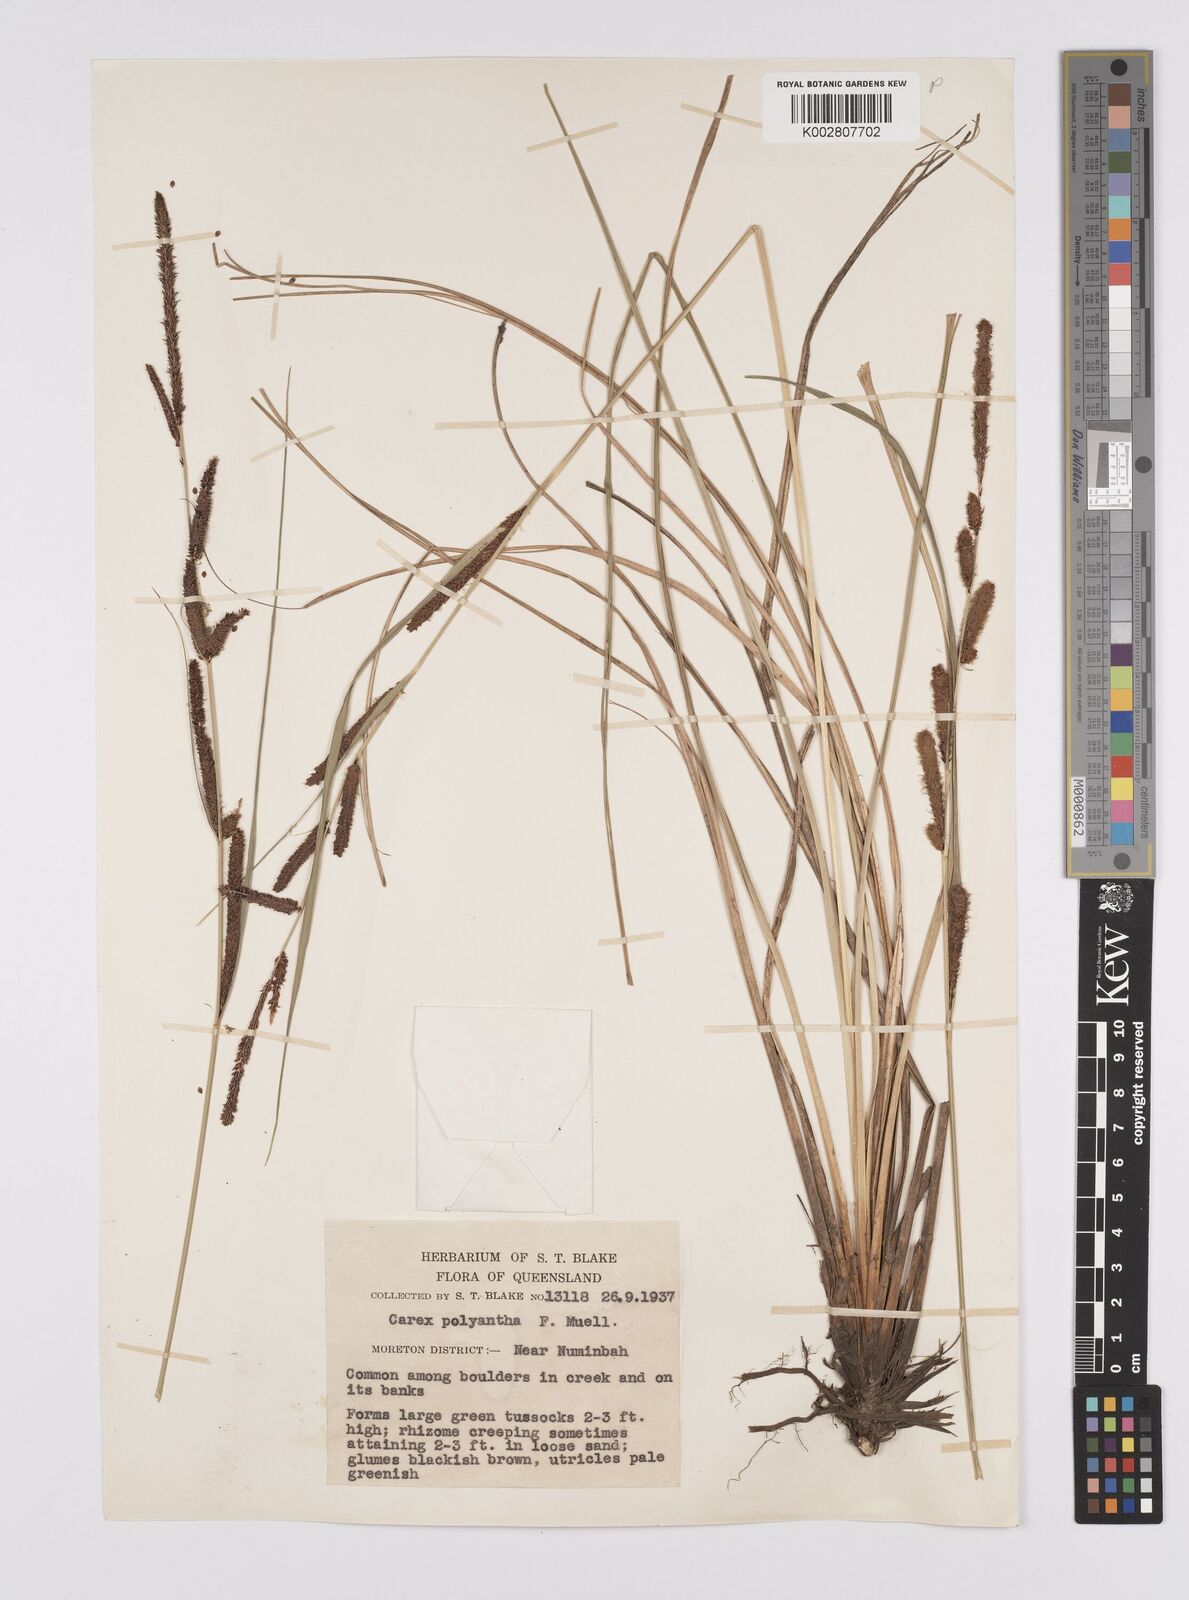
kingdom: Plantae
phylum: Tracheophyta
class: Liliopsida
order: Poales
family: Cyperaceae
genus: Carex
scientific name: Carex polyantha
